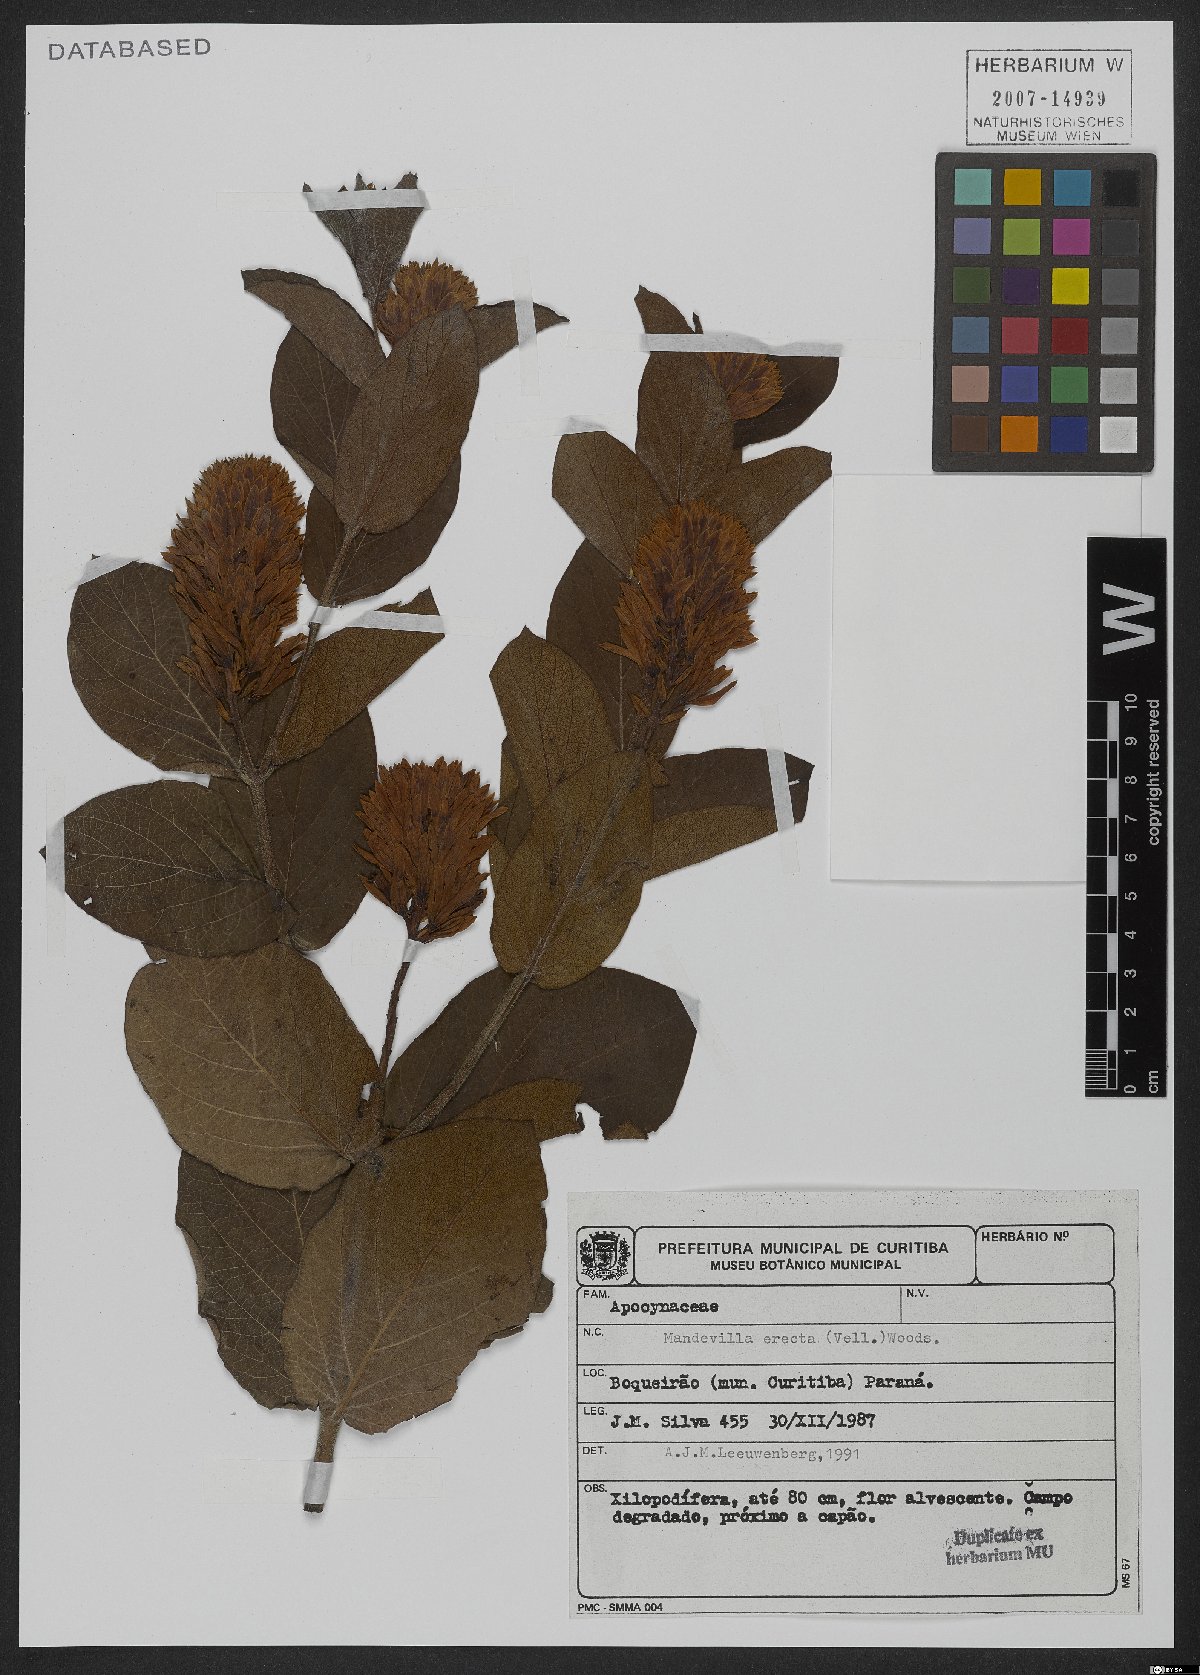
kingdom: Plantae
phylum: Tracheophyta
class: Magnoliopsida
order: Gentianales
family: Apocynaceae
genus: Mandevilla
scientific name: Mandevilla emarginata
